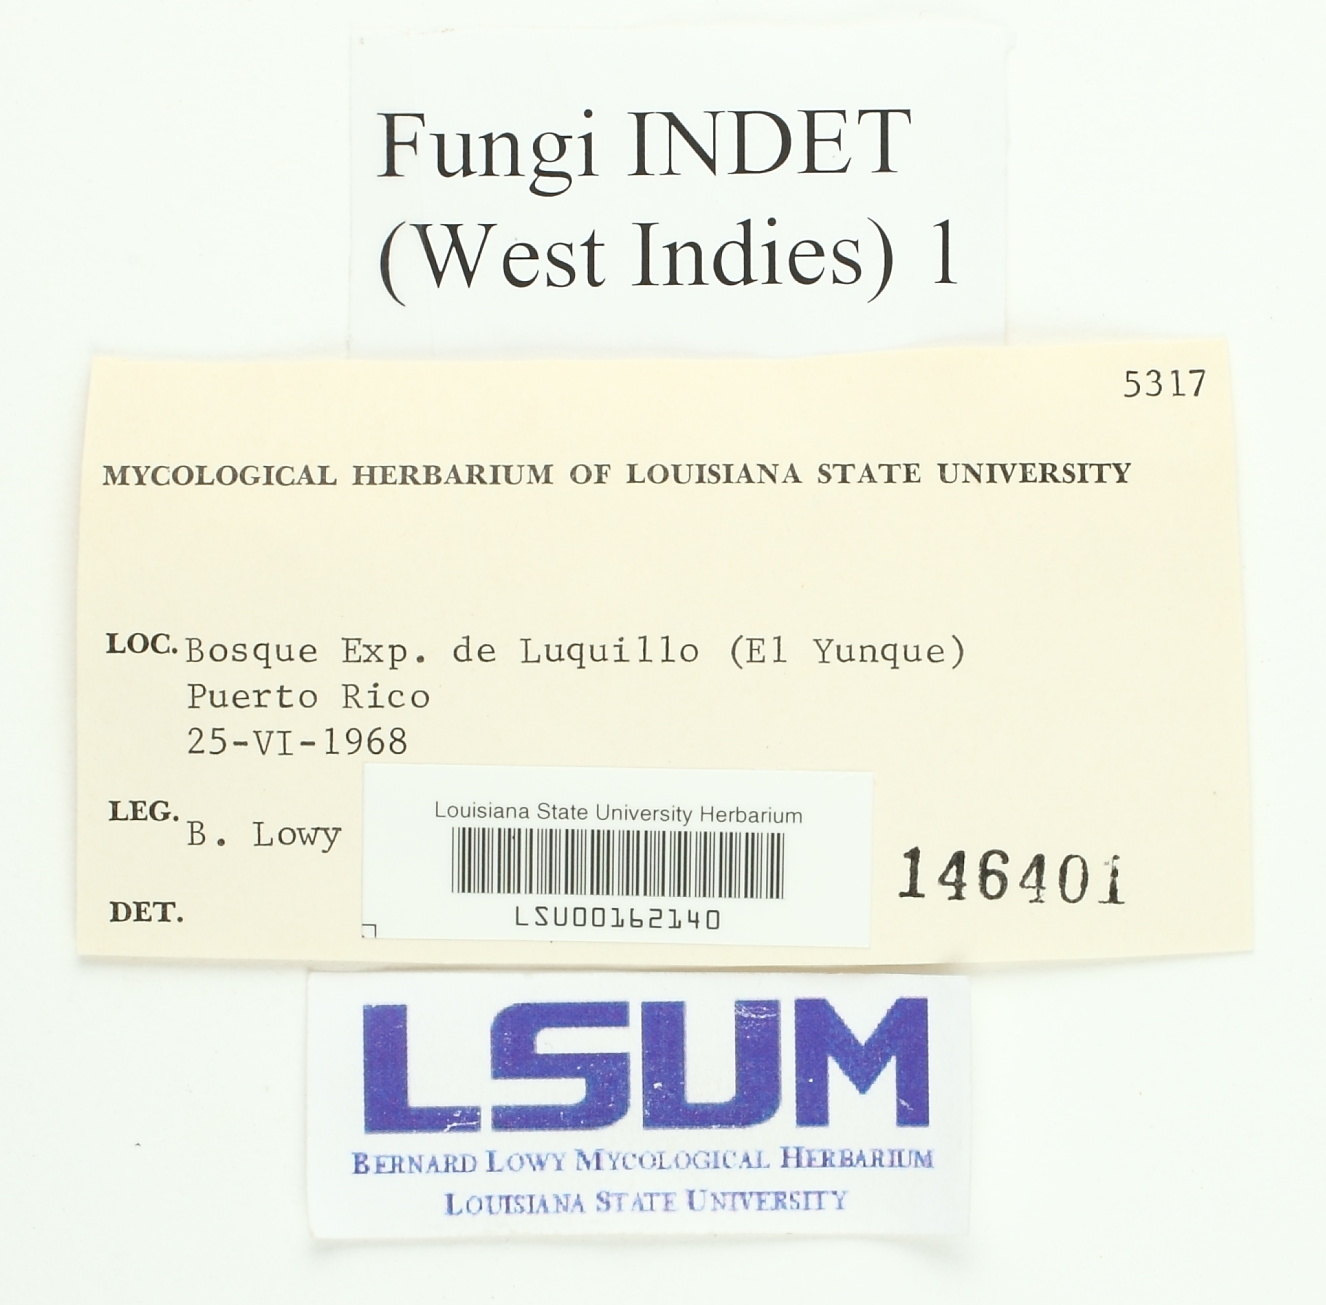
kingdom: Fungi
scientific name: Fungi
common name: Fungi
